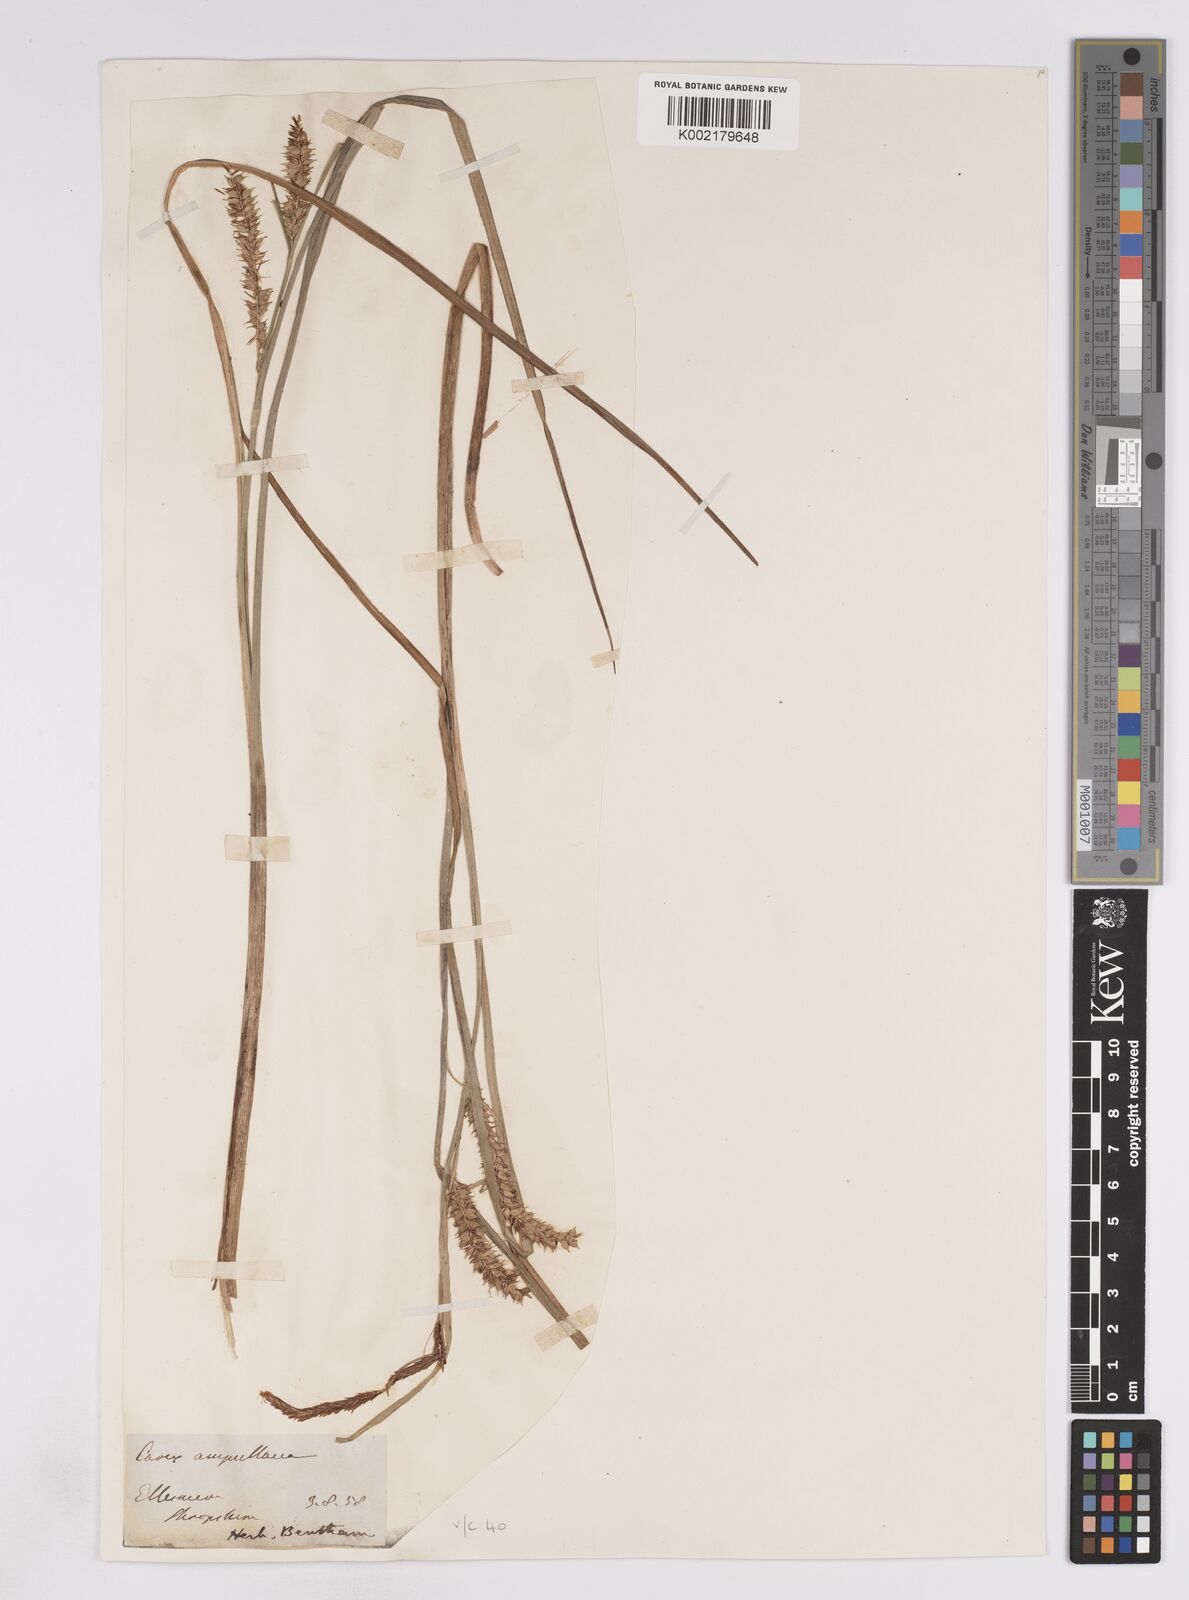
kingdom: Plantae
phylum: Tracheophyta
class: Liliopsida
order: Poales
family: Cyperaceae
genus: Carex
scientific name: Carex rostrata
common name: Bottle sedge
